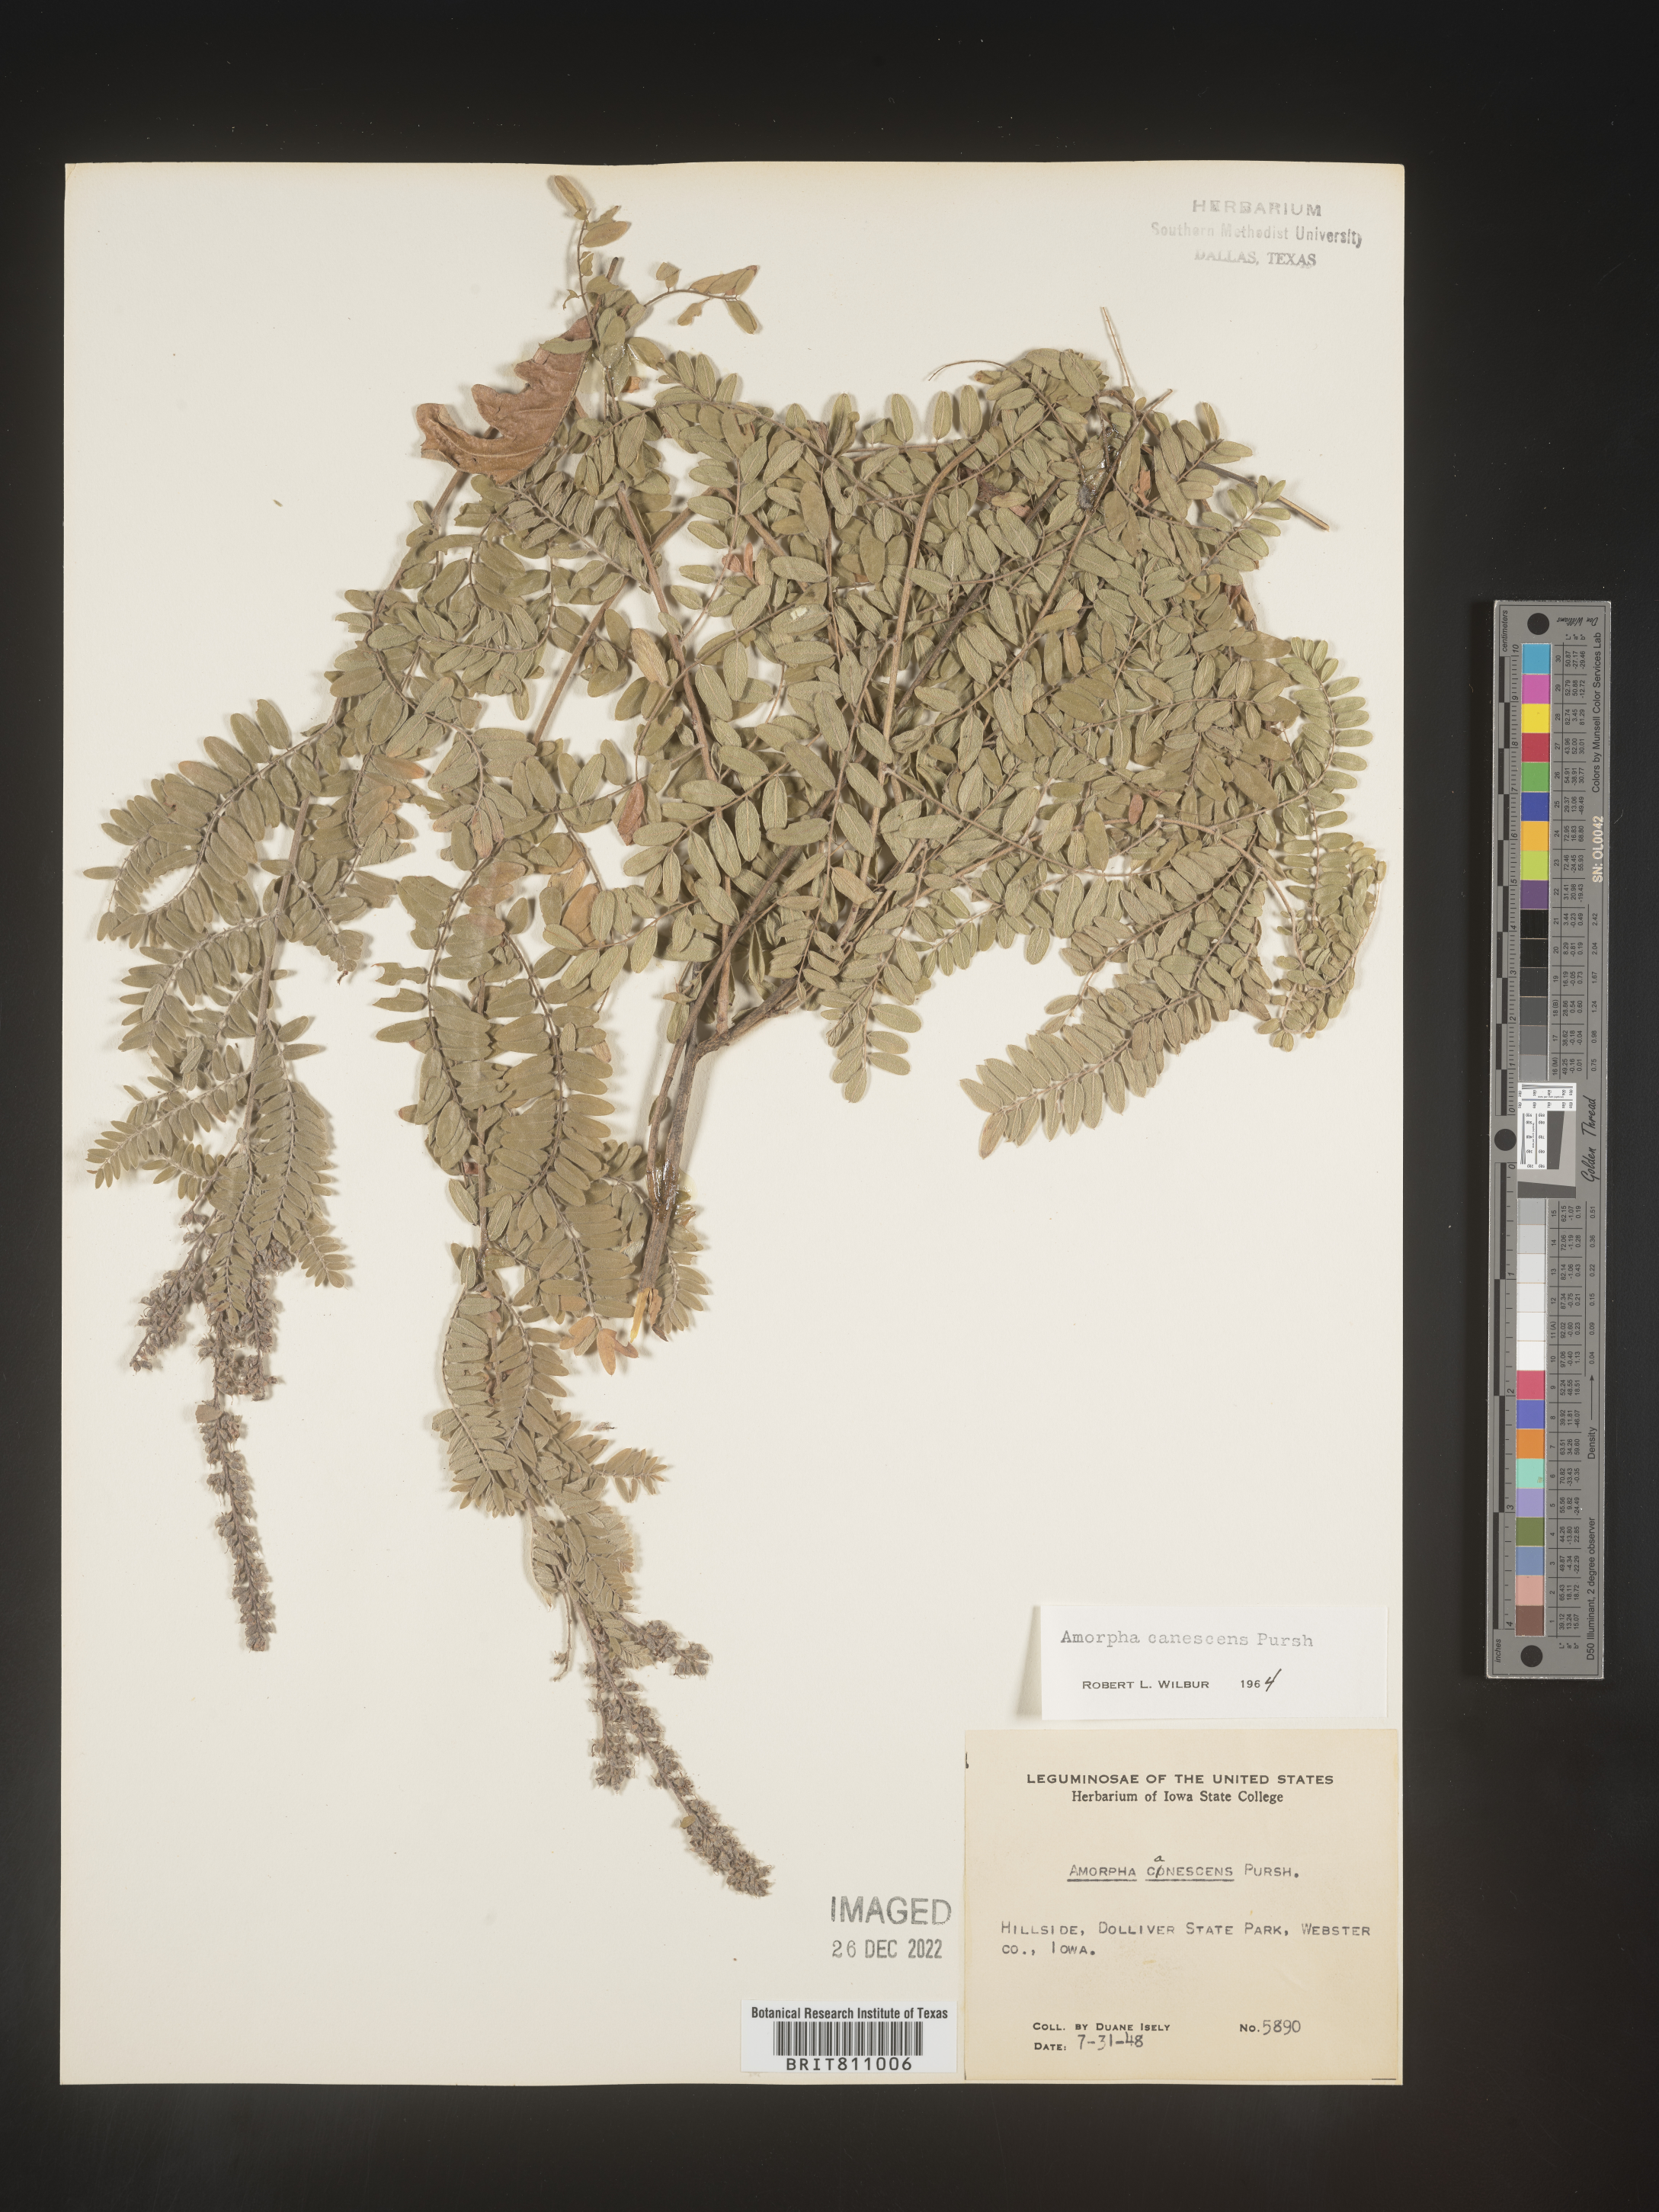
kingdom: Plantae
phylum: Tracheophyta
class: Magnoliopsida
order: Fabales
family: Fabaceae
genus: Amorpha
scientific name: Amorpha canescens
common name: Leadplant
